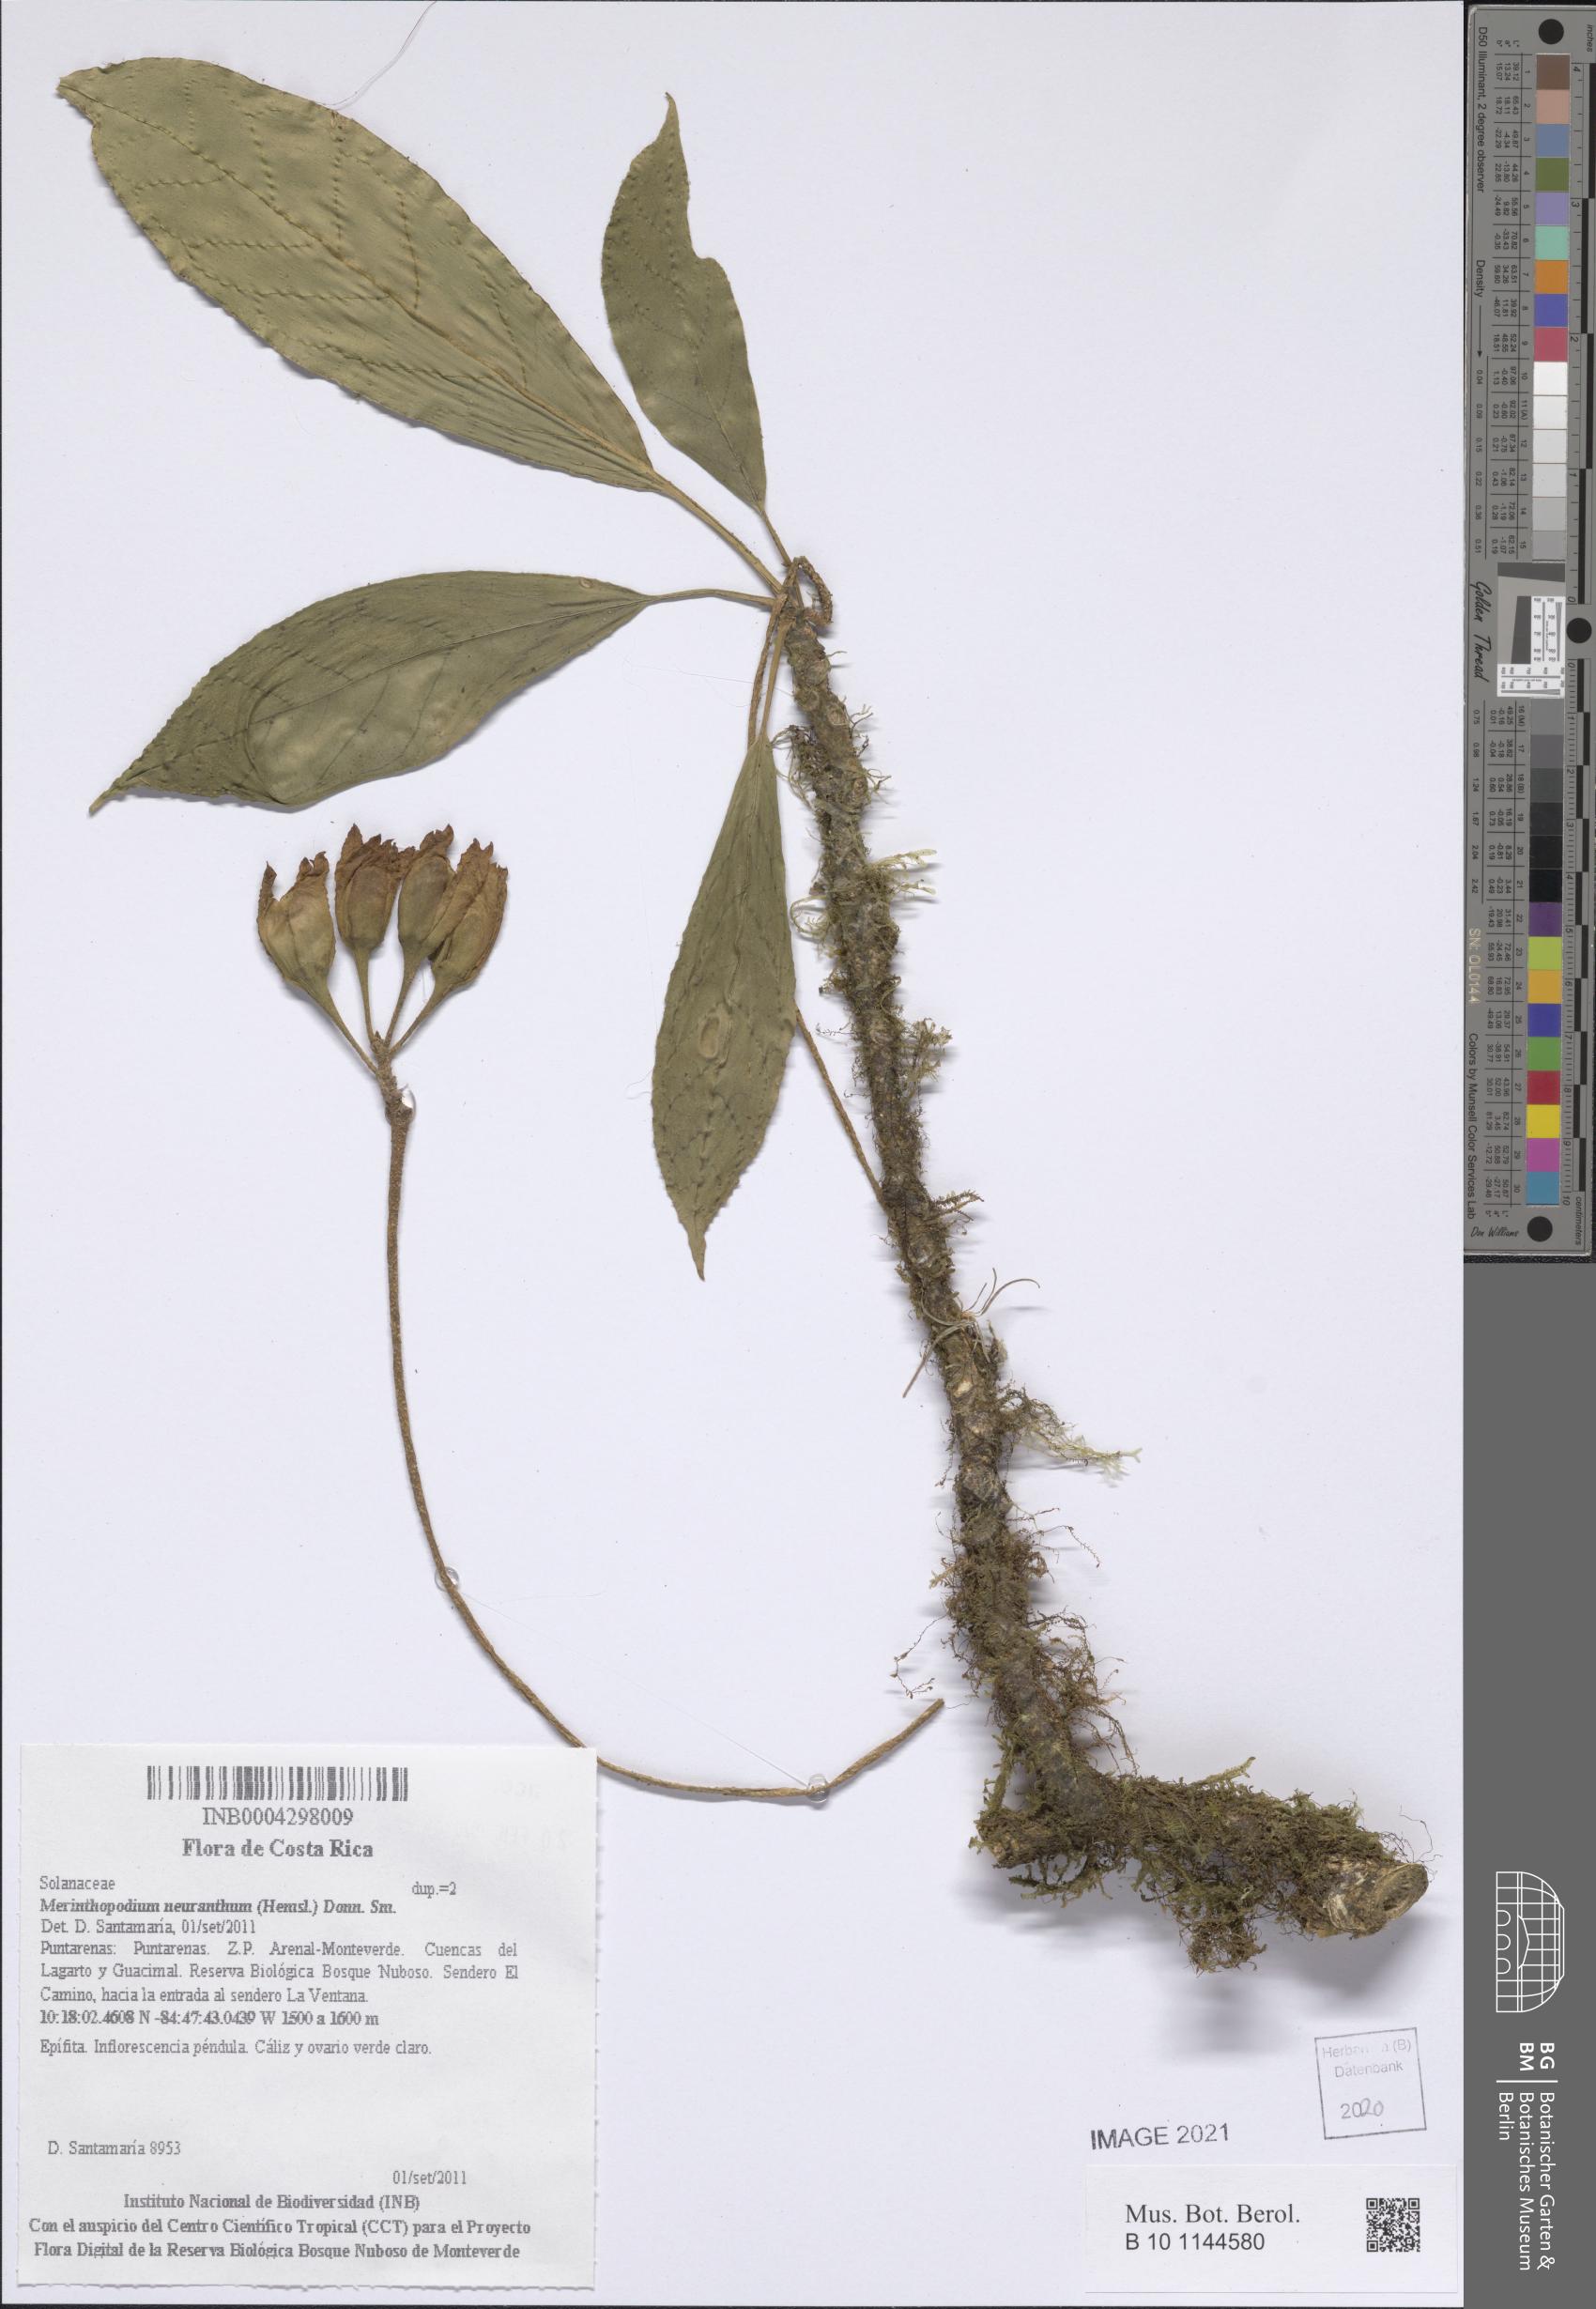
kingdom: Plantae
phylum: Tracheophyta
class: Magnoliopsida
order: Solanales
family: Solanaceae
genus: Merinthopodium
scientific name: Merinthopodium neuranthum
